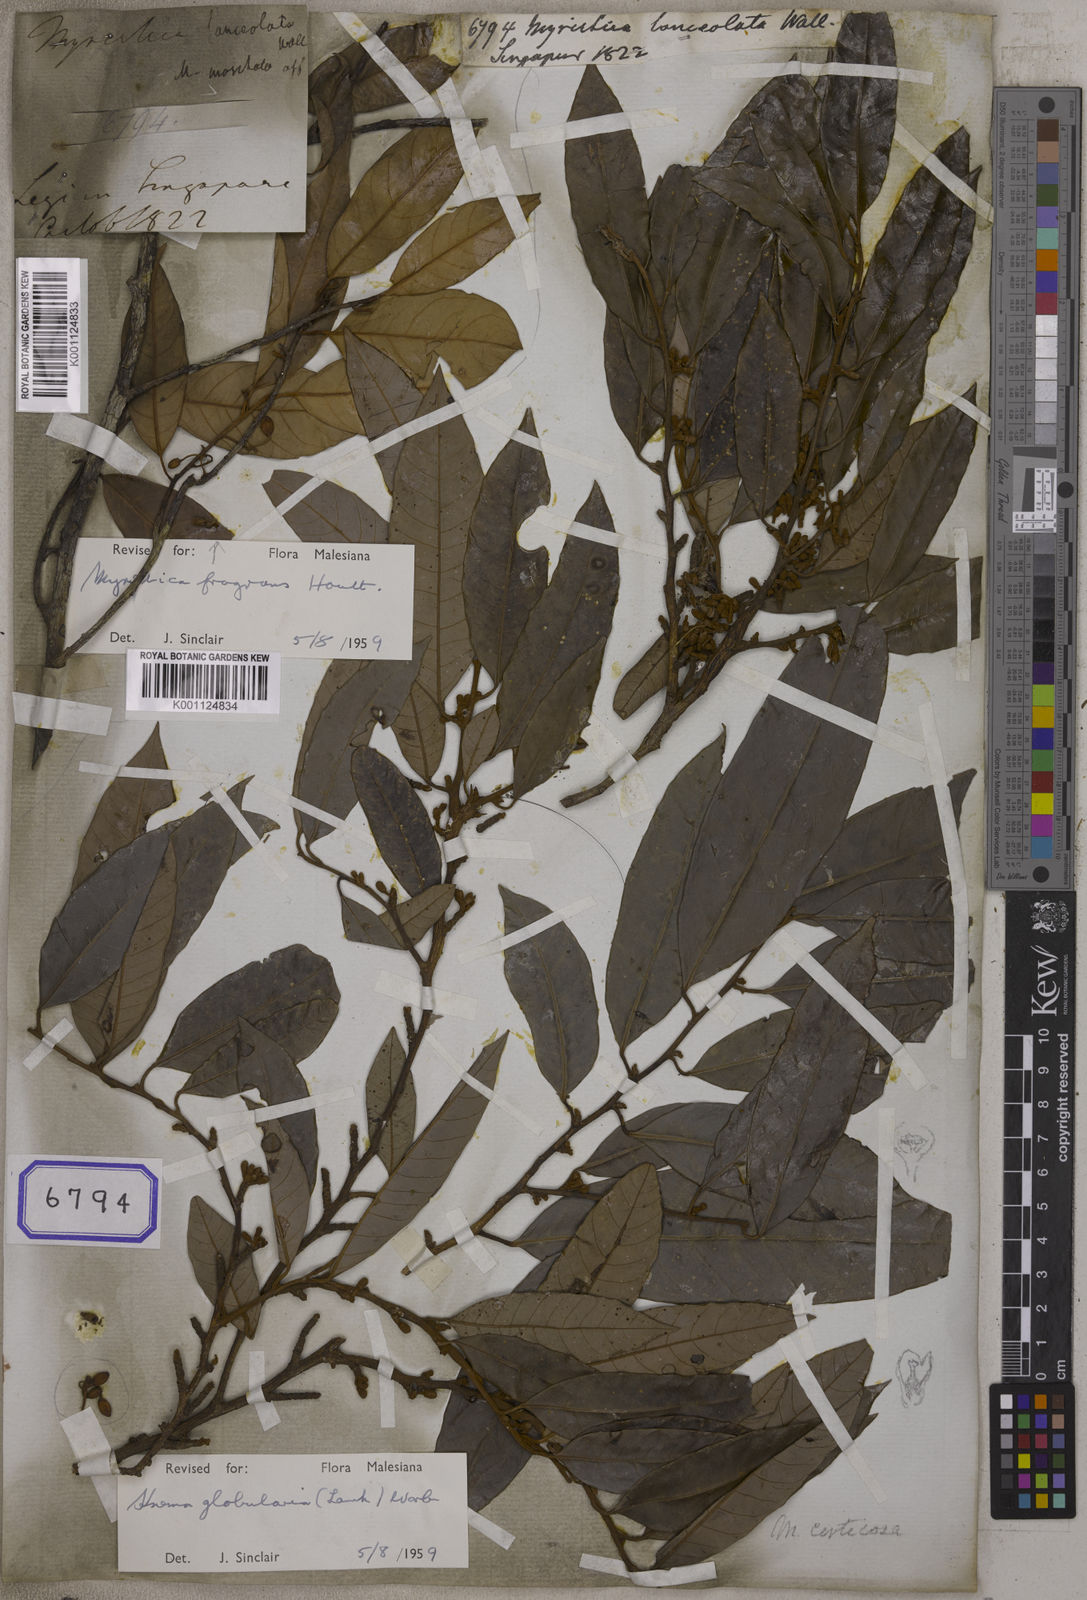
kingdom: Plantae
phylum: Tracheophyta
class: Magnoliopsida
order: Magnoliales
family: Myristicaceae
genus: Knema
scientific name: Knema globularia
